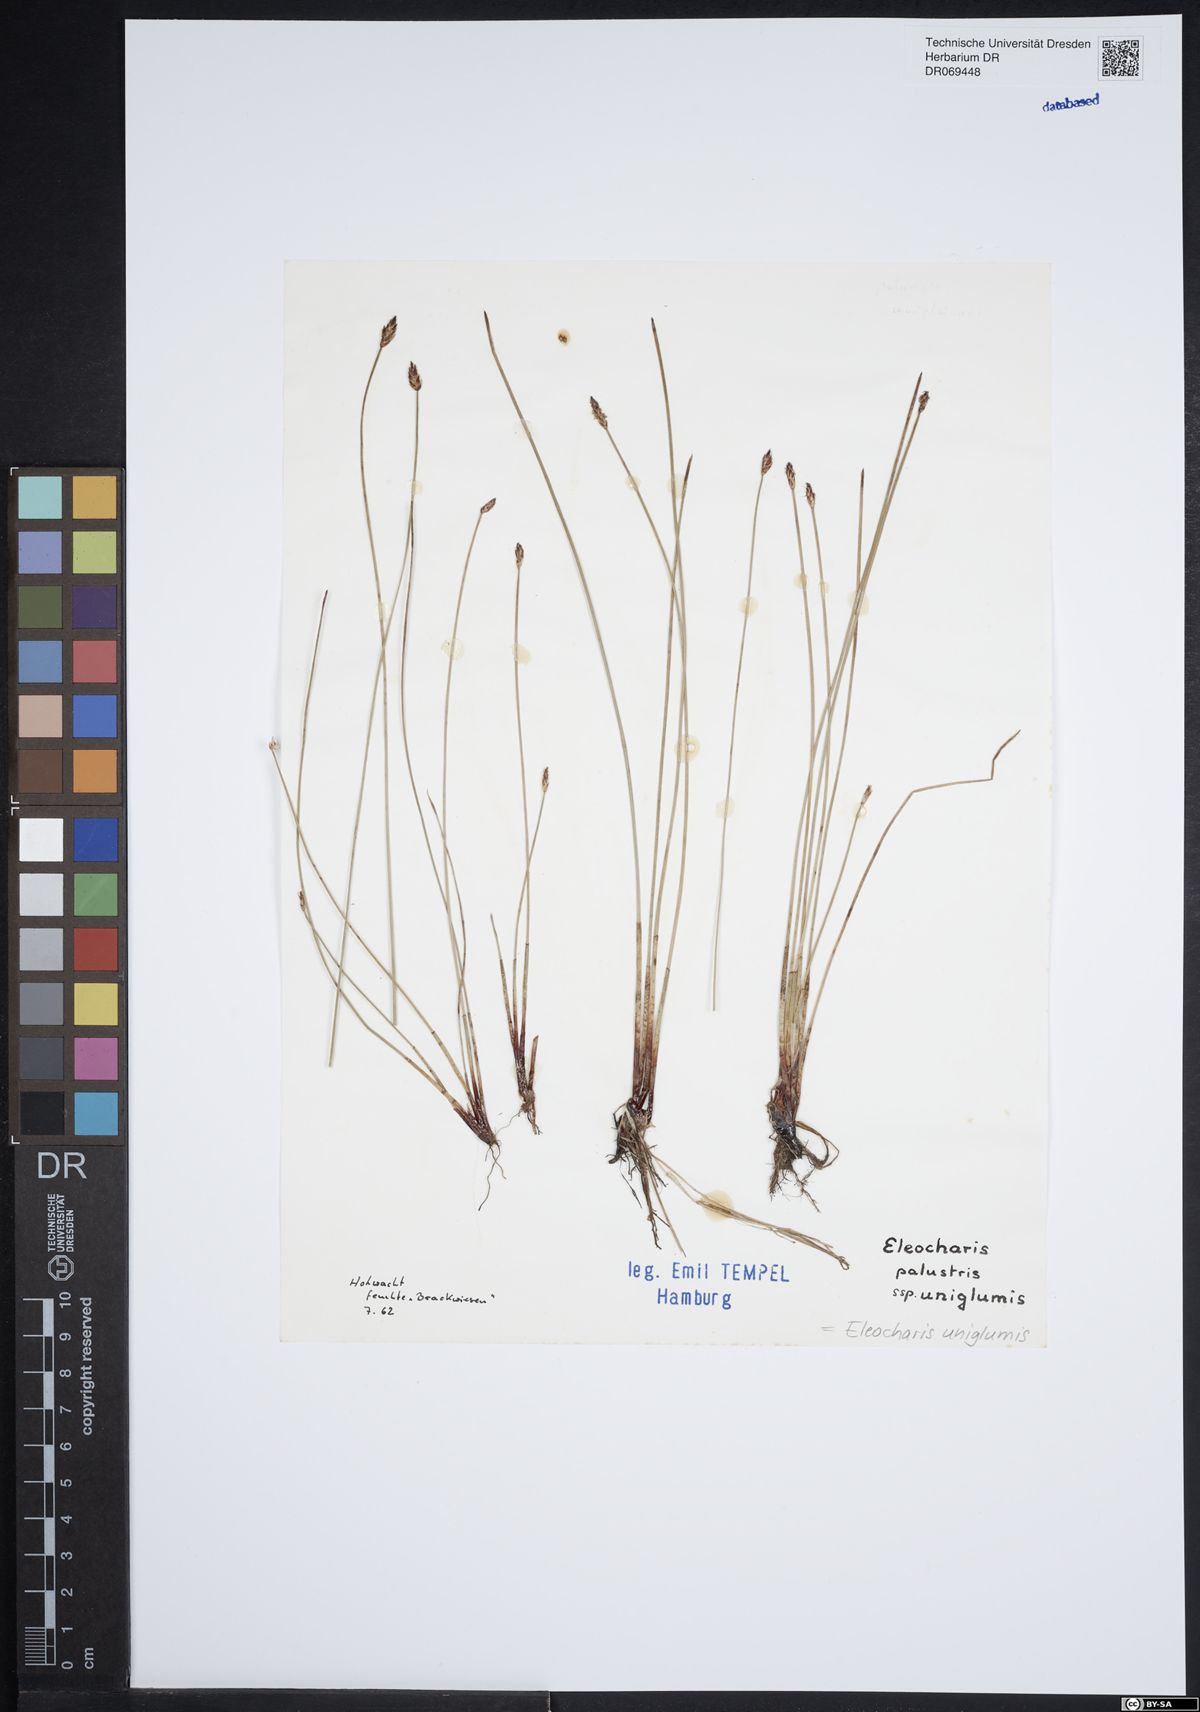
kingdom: Plantae
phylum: Tracheophyta
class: Liliopsida
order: Poales
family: Cyperaceae
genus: Eleocharis
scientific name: Eleocharis uniglumis
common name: Slender spike-rush
